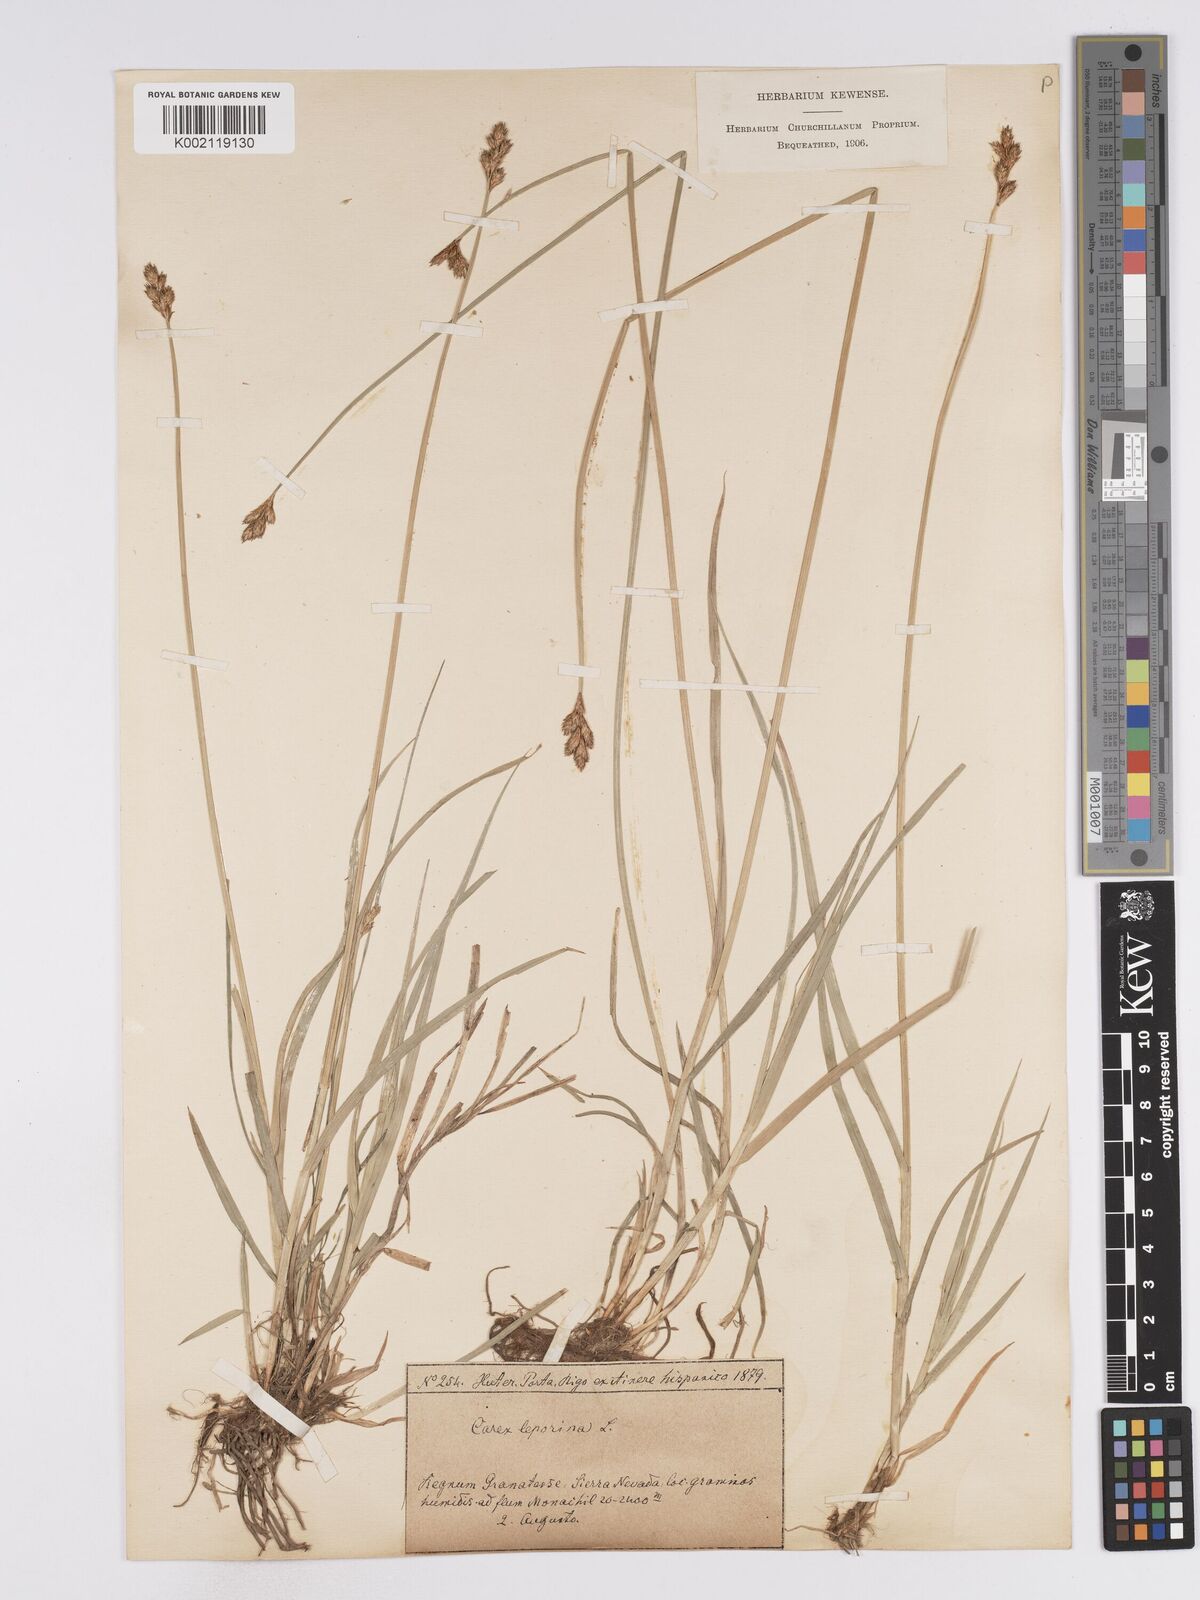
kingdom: Plantae
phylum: Tracheophyta
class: Liliopsida
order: Poales
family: Cyperaceae
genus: Carex
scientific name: Carex leporina
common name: Oval sedge
